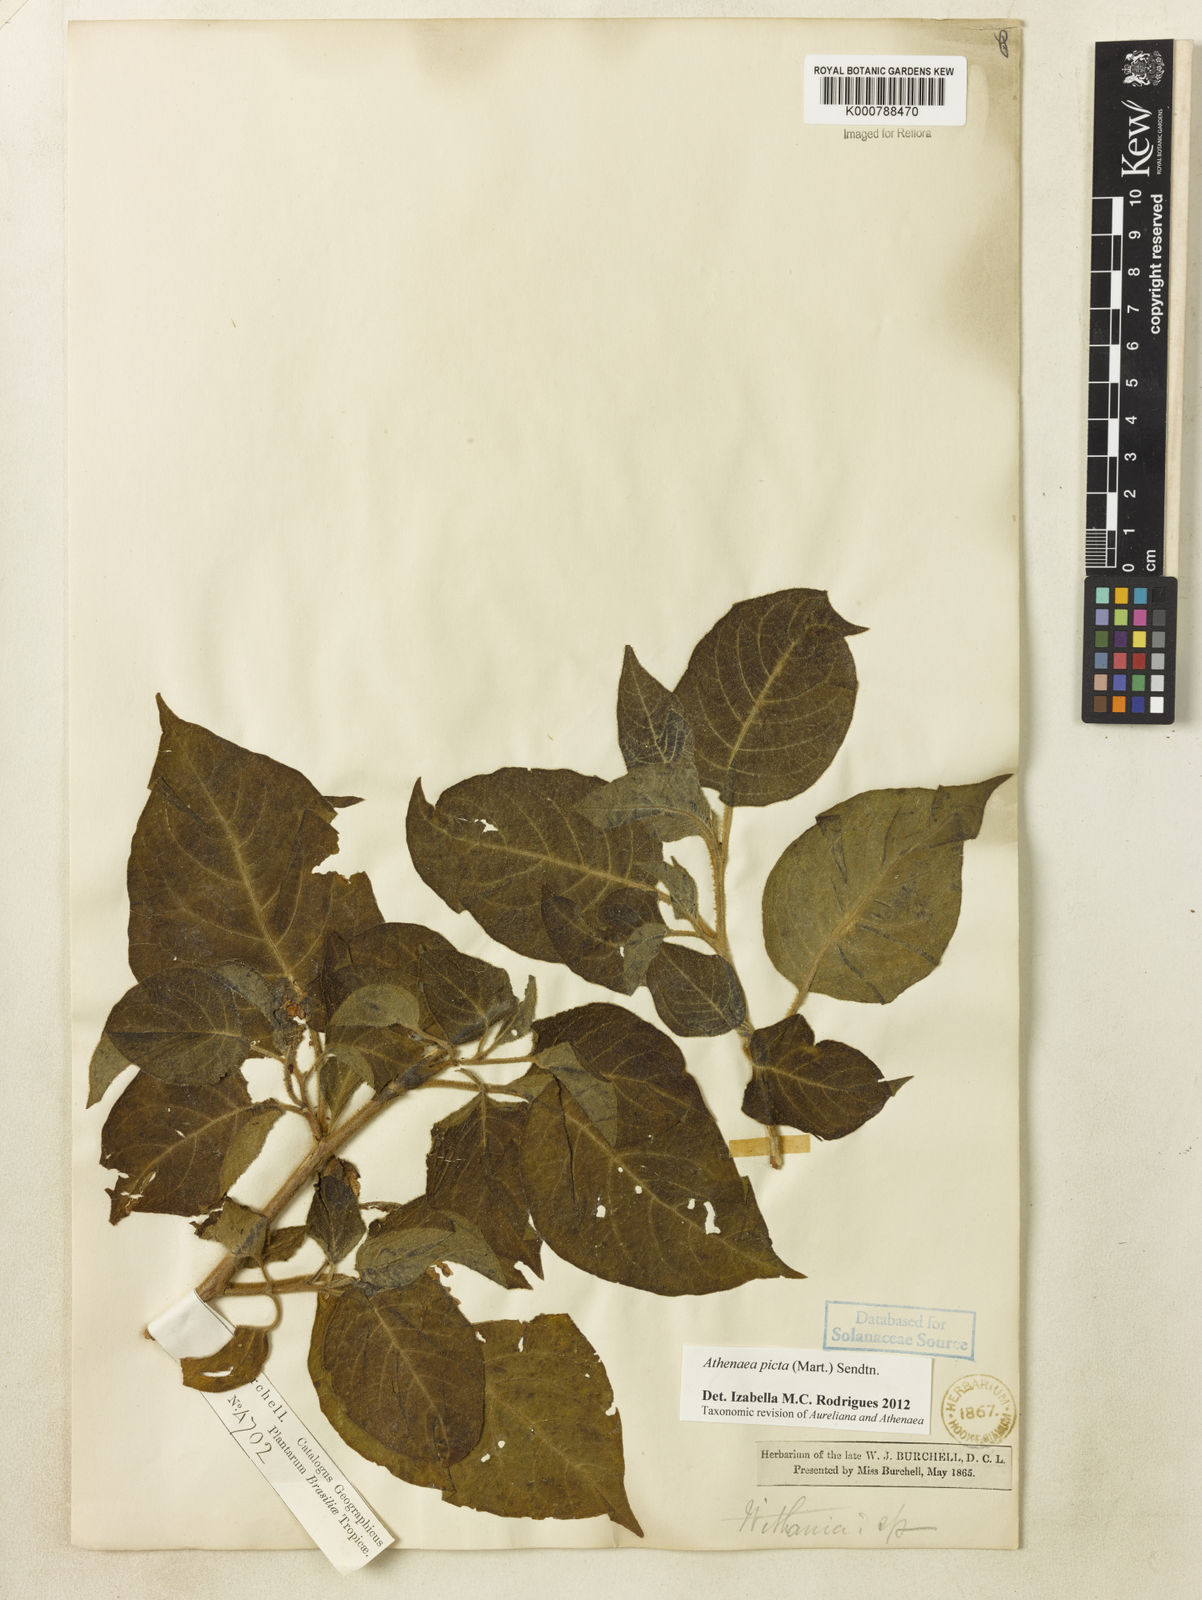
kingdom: Plantae
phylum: Tracheophyta
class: Magnoliopsida
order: Solanales
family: Solanaceae
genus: Athenaea
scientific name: Athenaea picta
